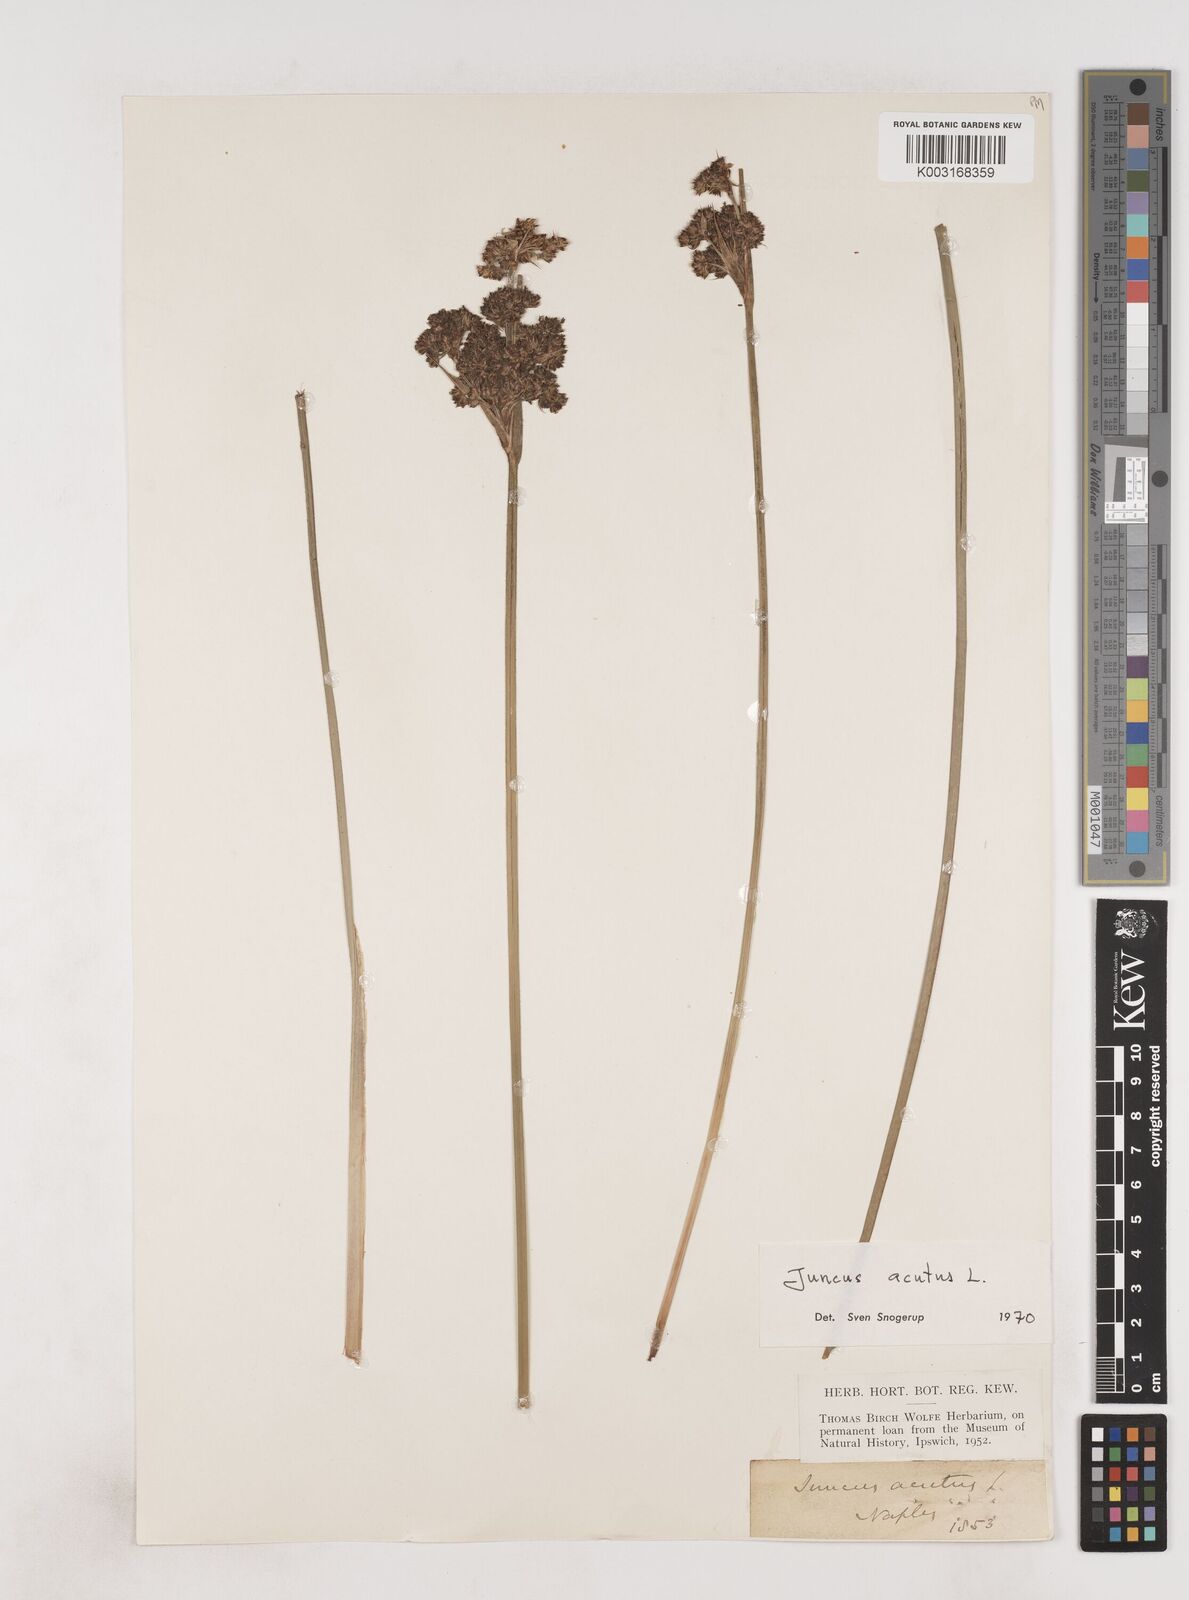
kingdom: Plantae
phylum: Tracheophyta
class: Liliopsida
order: Poales
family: Juncaceae
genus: Juncus
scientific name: Juncus acutus
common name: Sharp rush
